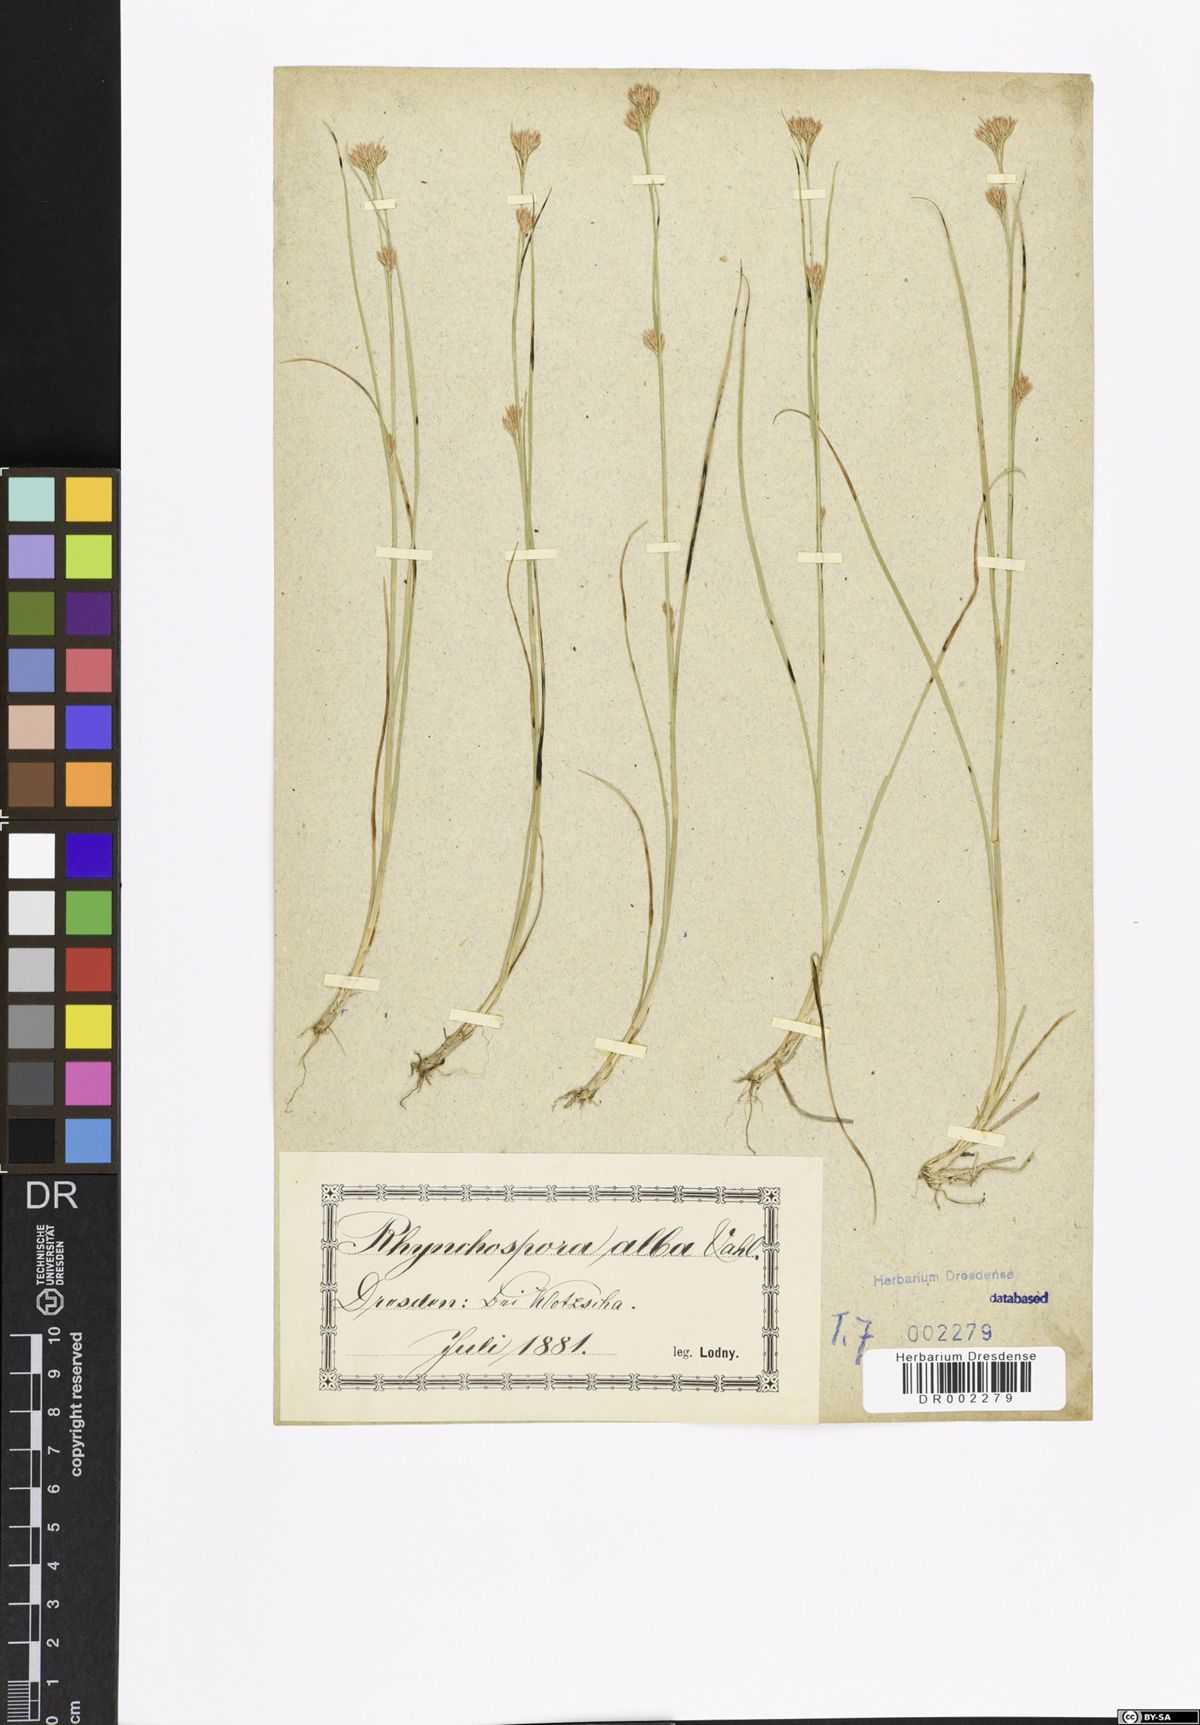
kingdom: Plantae
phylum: Tracheophyta
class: Liliopsida
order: Poales
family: Cyperaceae
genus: Rhynchospora
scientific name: Rhynchospora alba
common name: White beak-sedge
